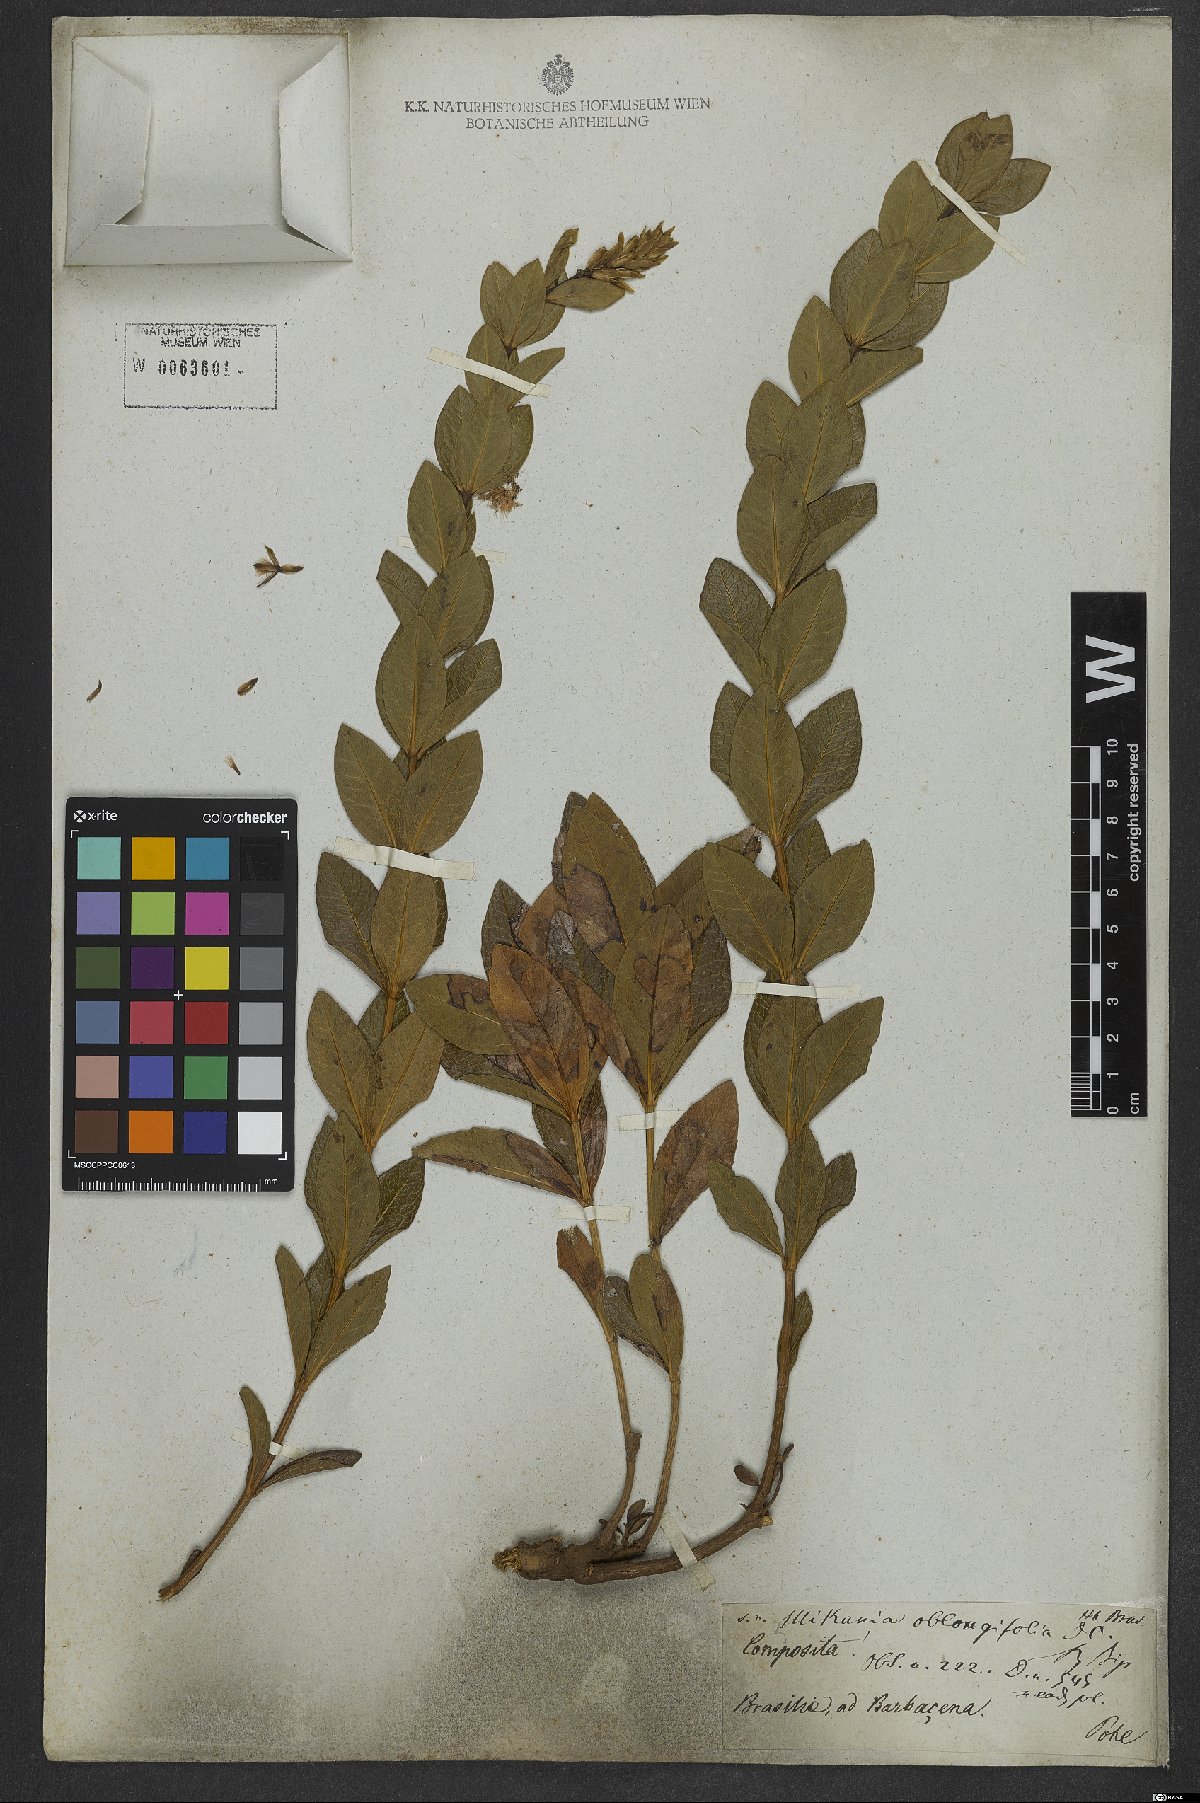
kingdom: Plantae
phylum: Tracheophyta
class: Magnoliopsida
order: Asterales
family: Asteraceae
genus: Mikania
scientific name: Mikania oblongifolia
